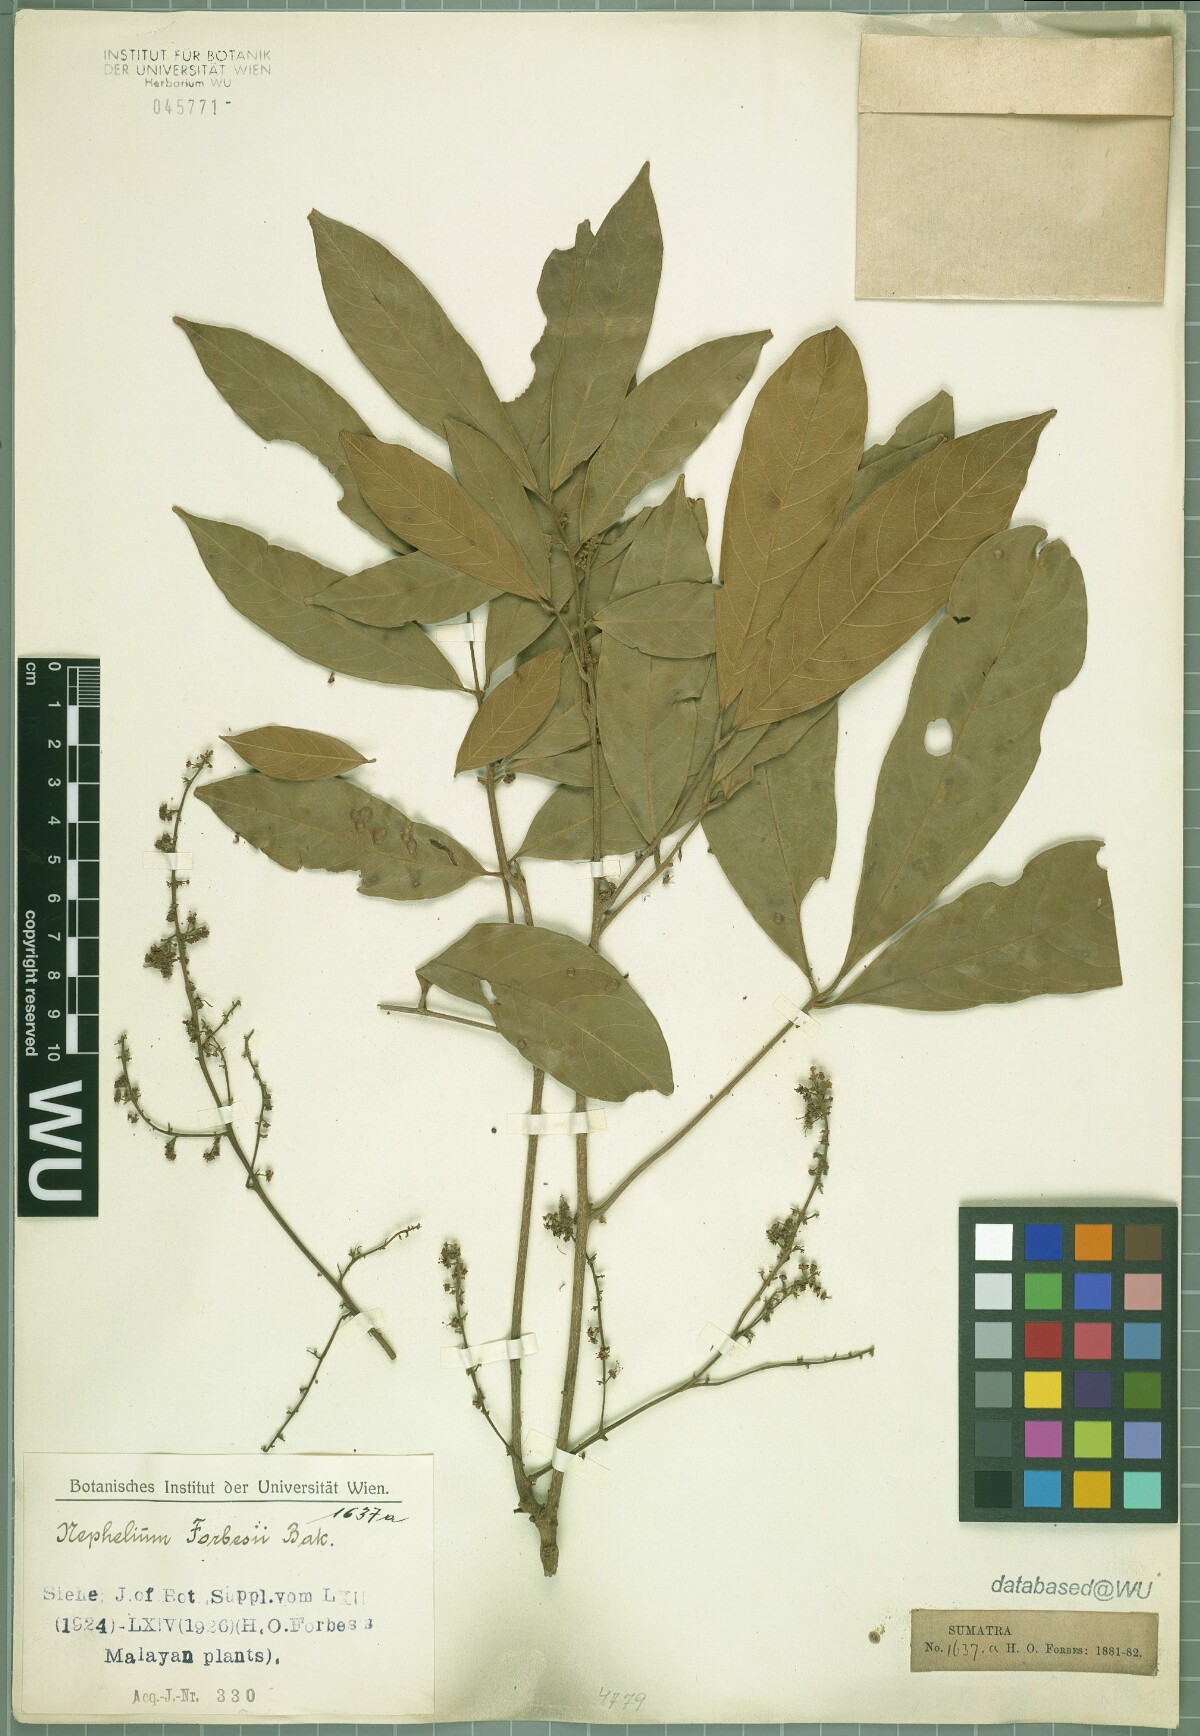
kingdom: Plantae
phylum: Tracheophyta
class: Magnoliopsida
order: Sapindales
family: Sapindaceae
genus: Paranephelium
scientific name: Paranephelium xestophyllum
